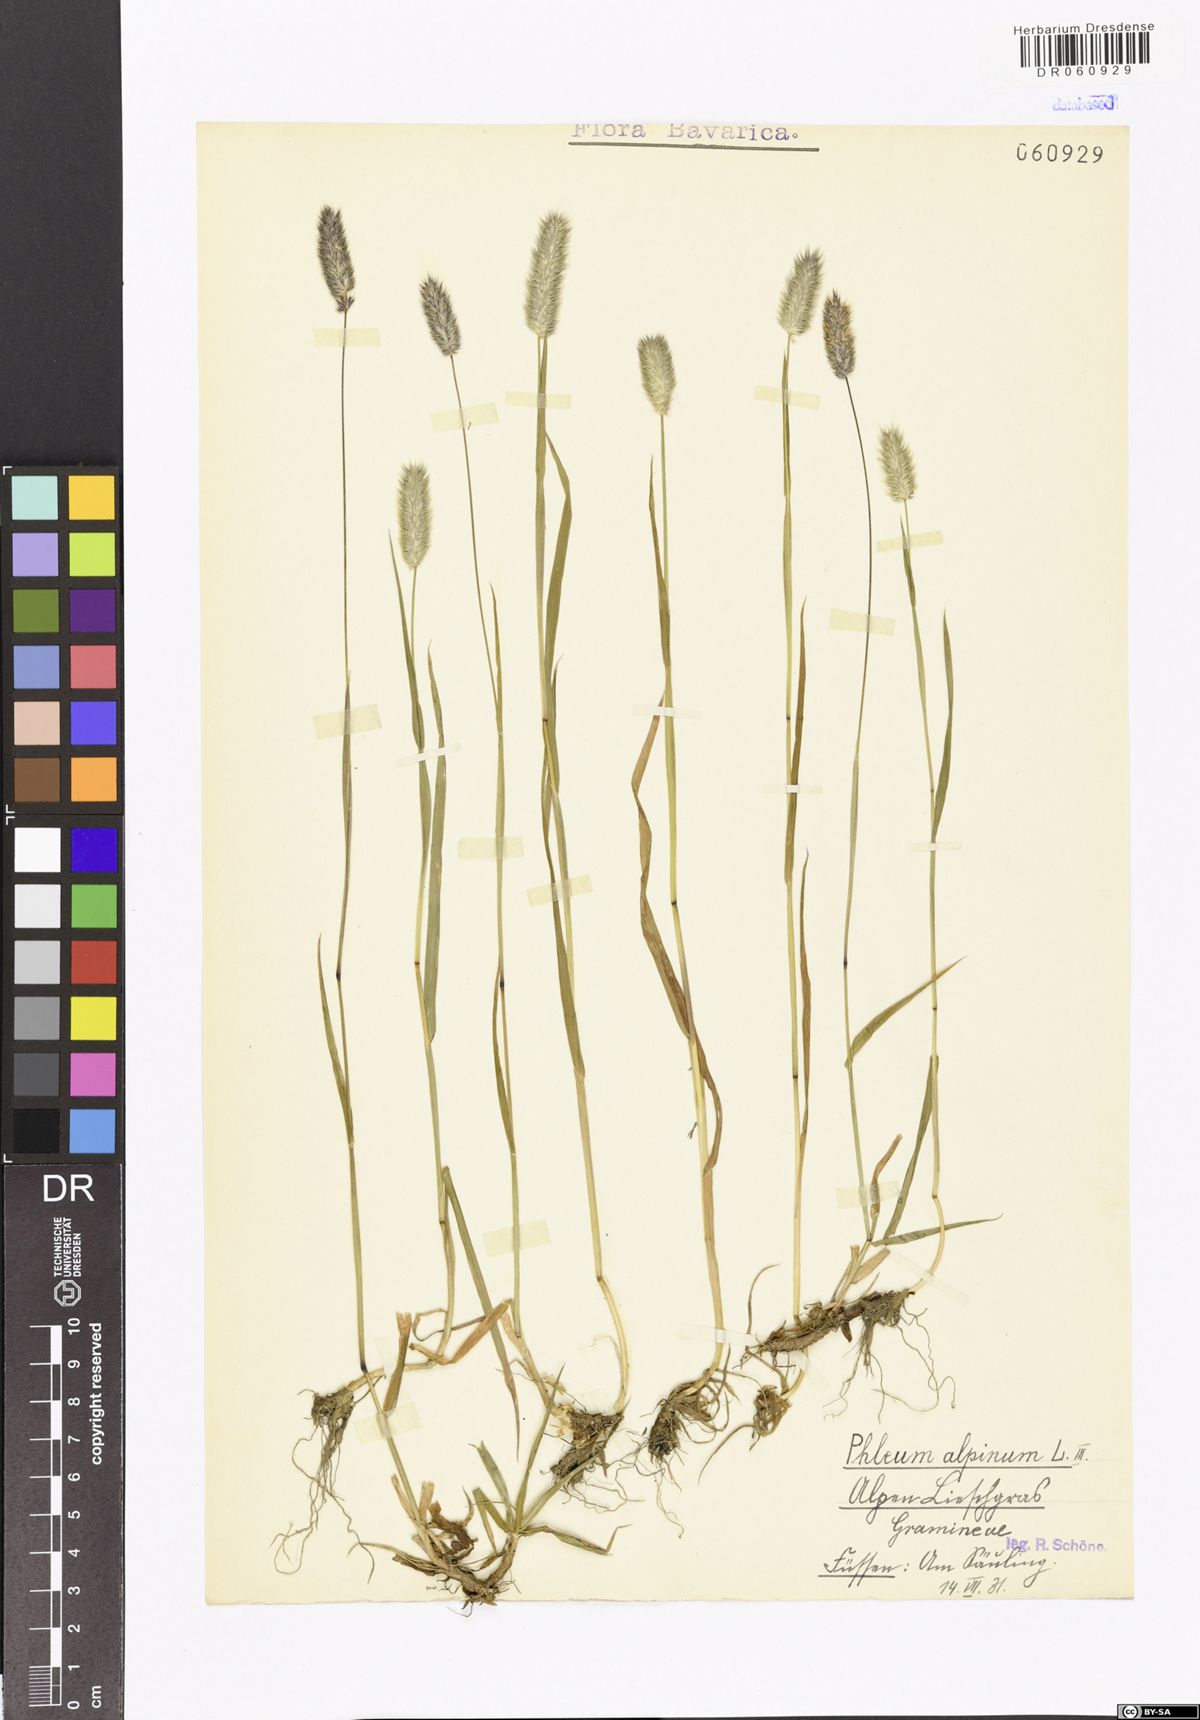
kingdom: Plantae
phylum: Tracheophyta
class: Liliopsida
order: Poales
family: Poaceae
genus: Phleum
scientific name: Phleum alpinum
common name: Alpine cat's-tail
